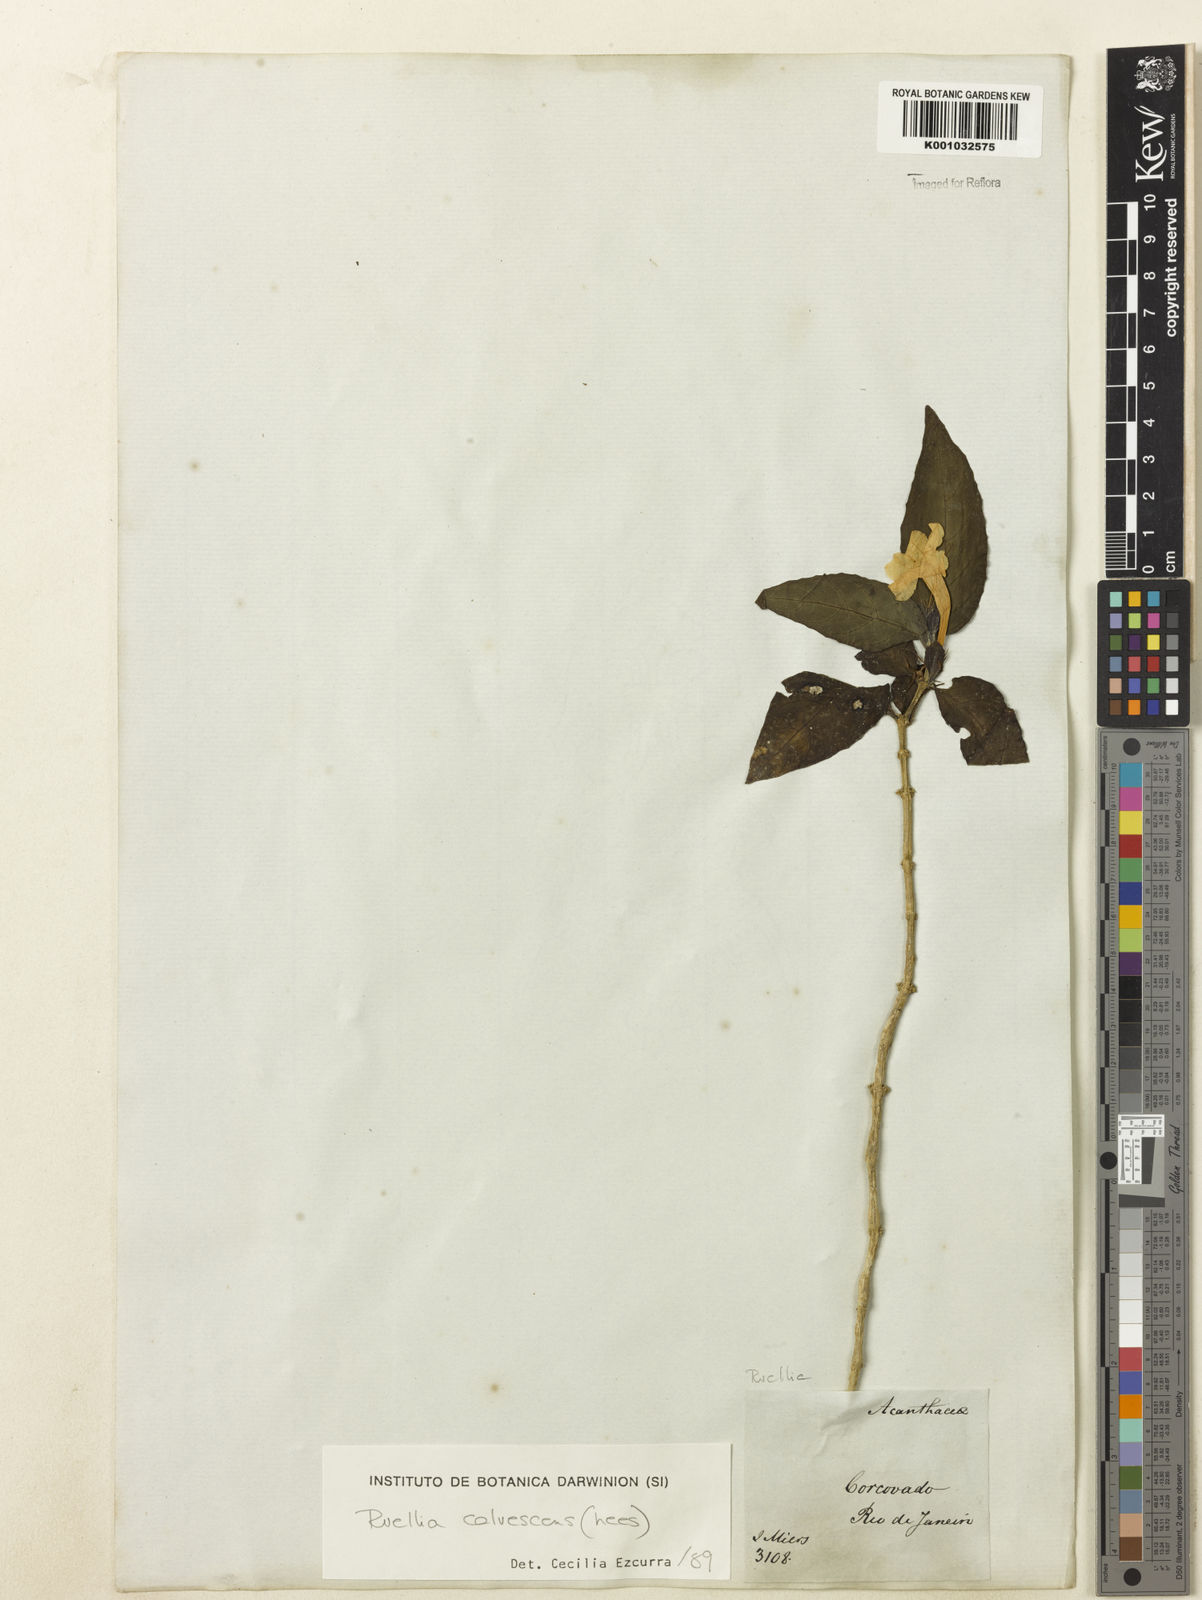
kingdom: Plantae
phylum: Tracheophyta
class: Magnoliopsida
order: Lamiales
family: Acanthaceae
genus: Ruellia
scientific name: Ruellia solitaria
